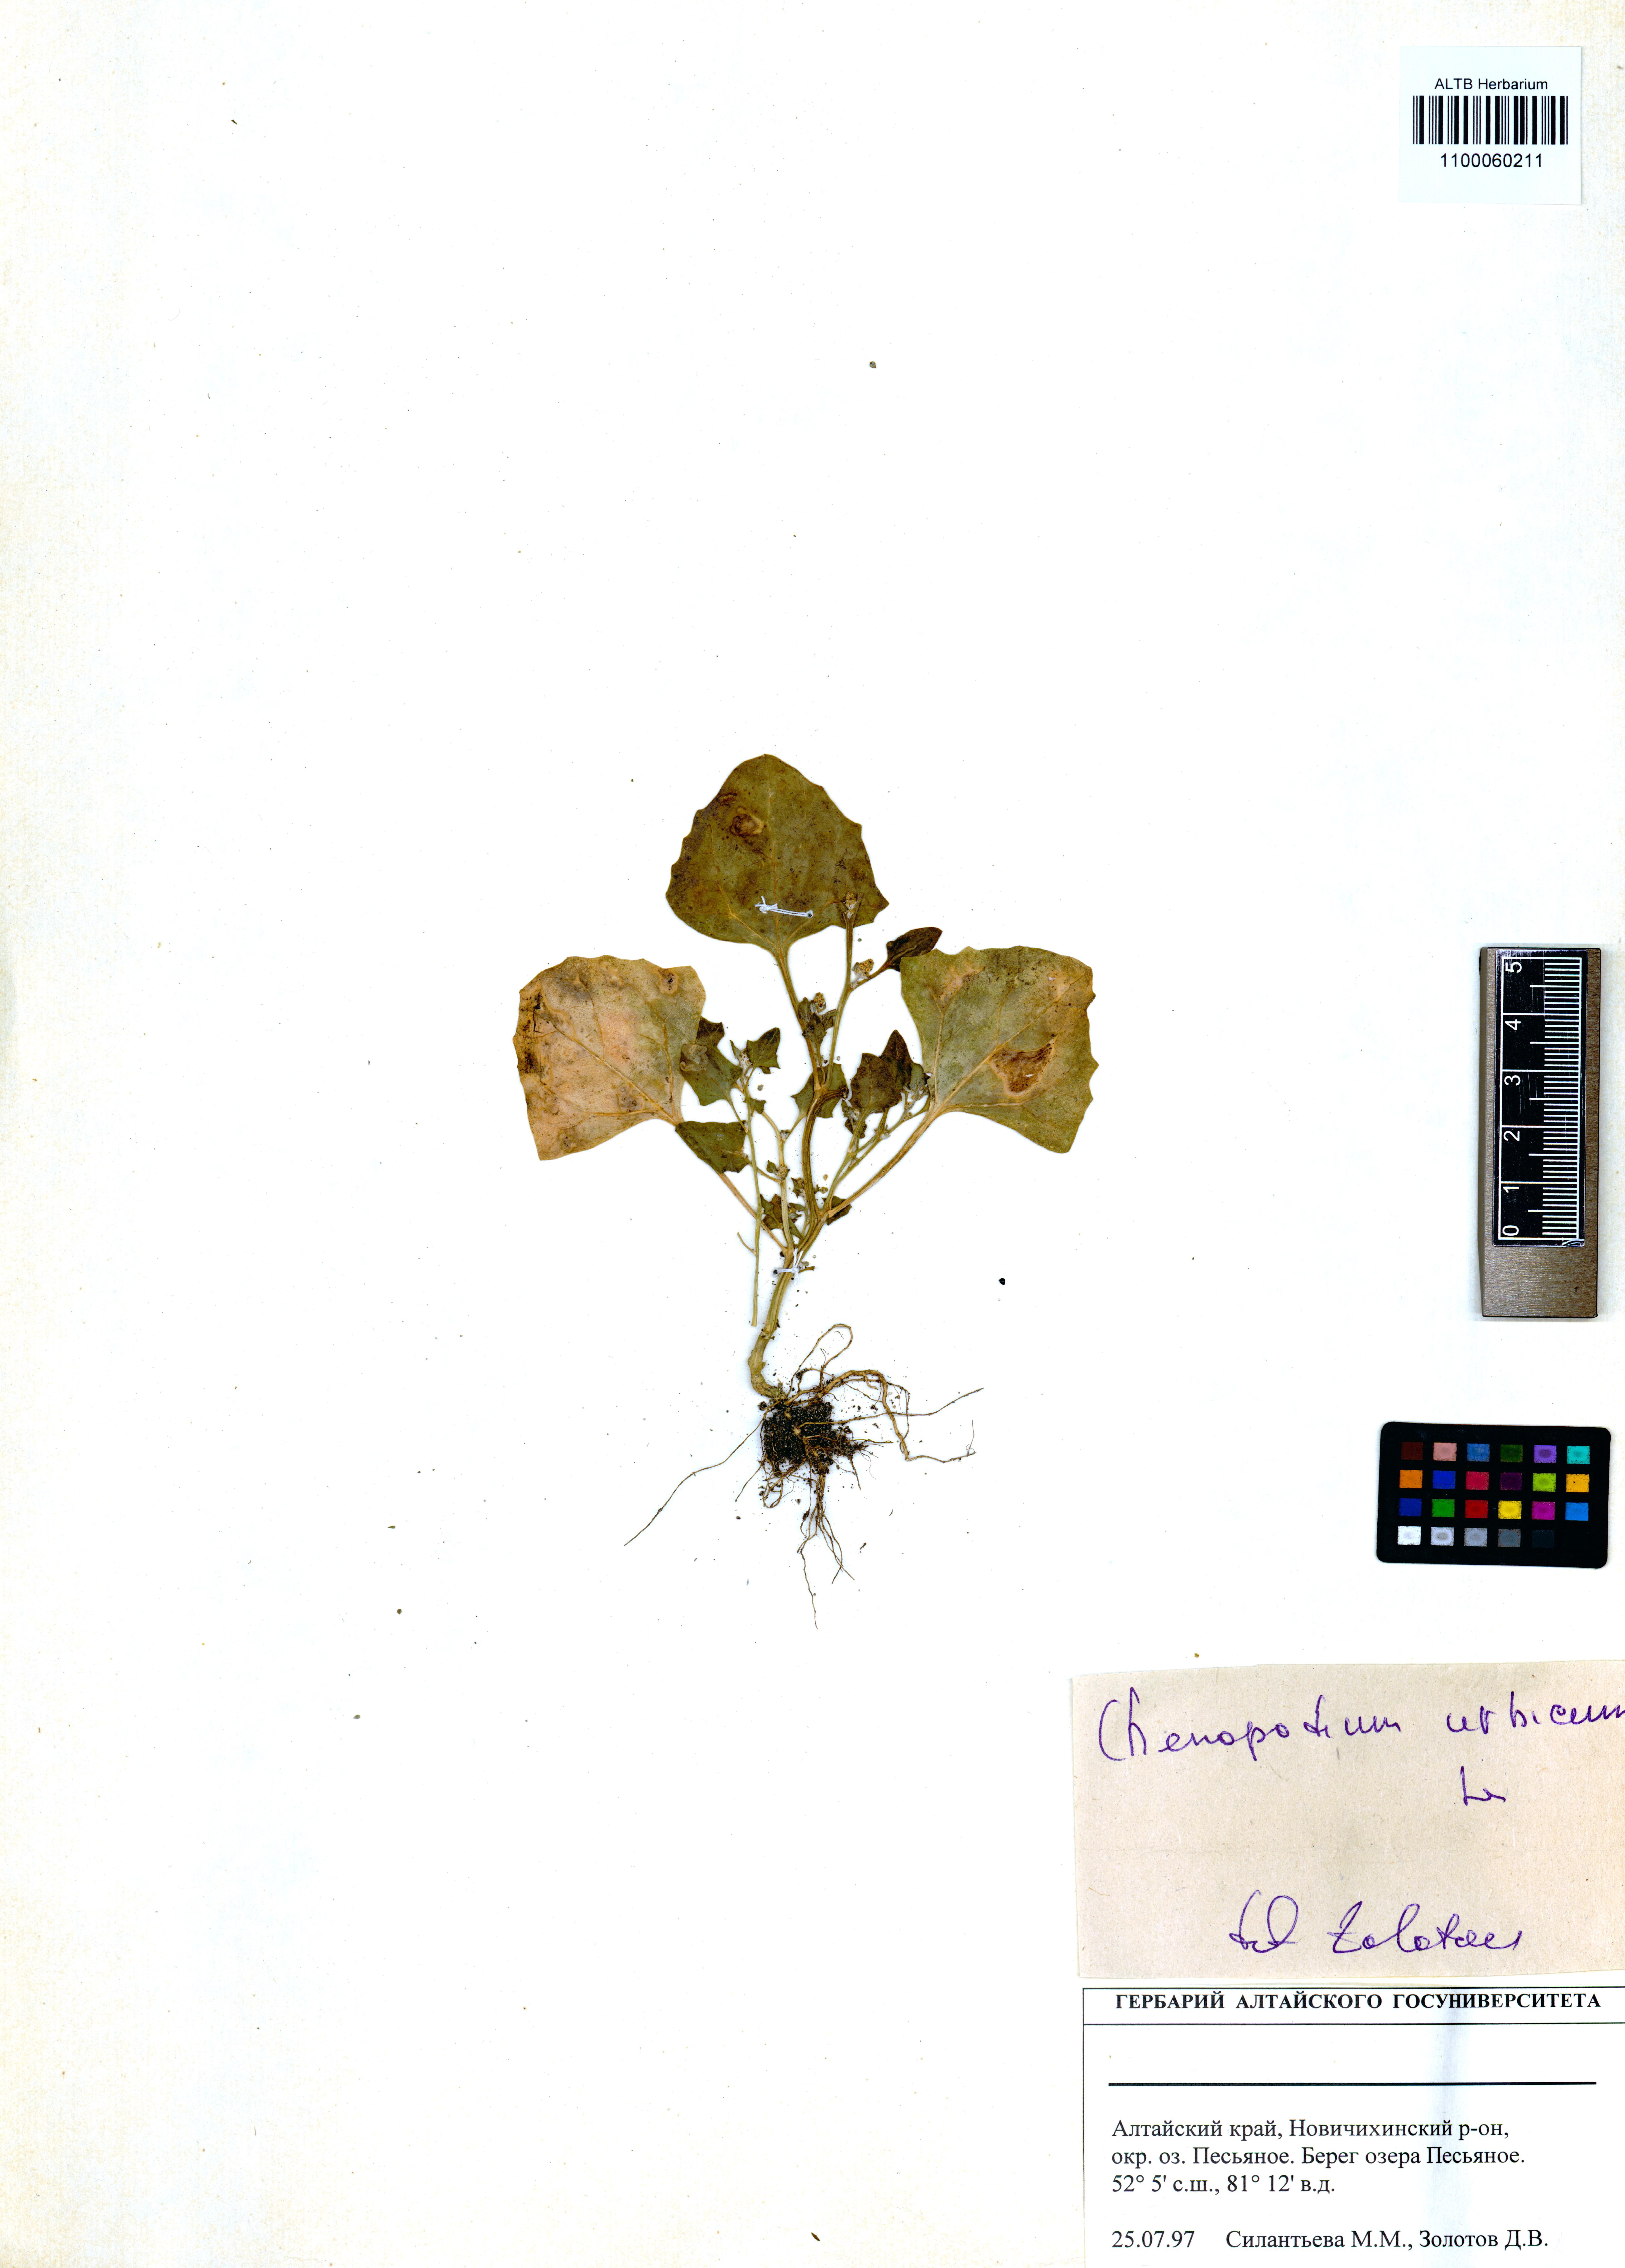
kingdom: Plantae
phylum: Tracheophyta
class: Magnoliopsida
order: Caryophyllales
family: Amaranthaceae
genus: Oxybasis
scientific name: Oxybasis urbica
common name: City goosefoot
